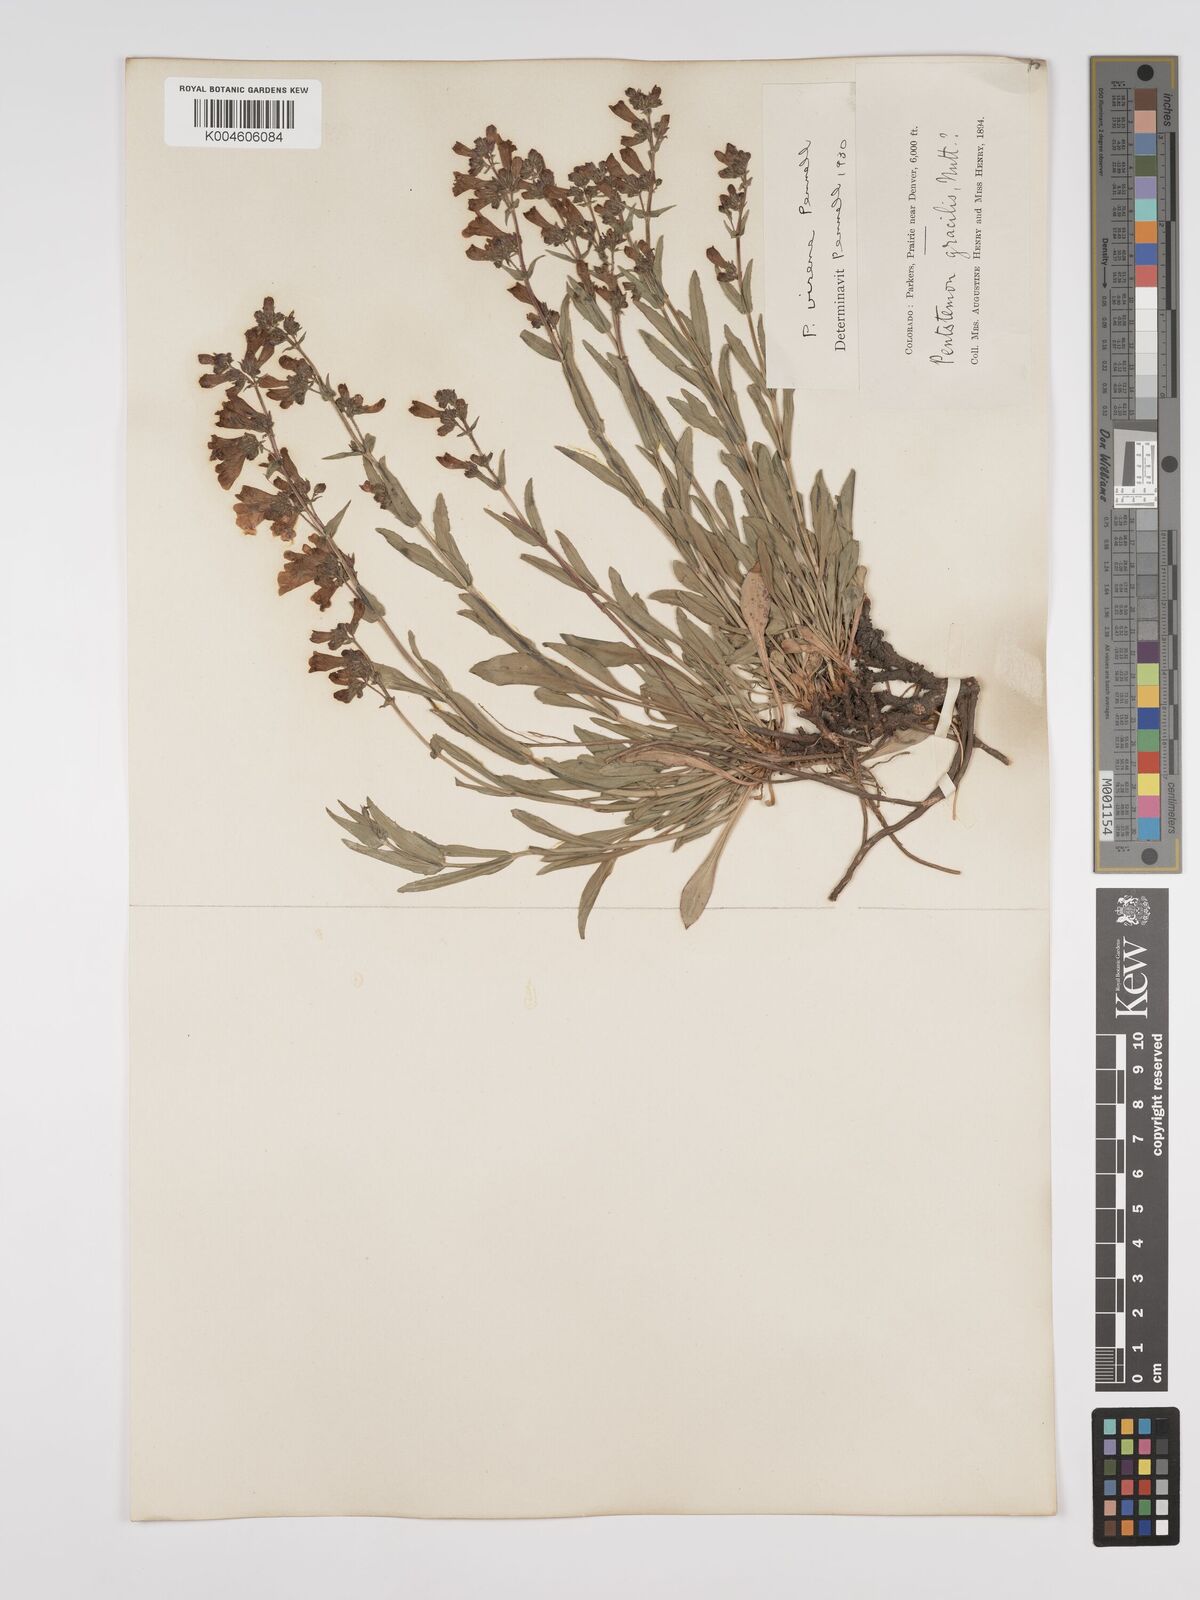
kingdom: Plantae
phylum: Tracheophyta
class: Magnoliopsida
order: Lamiales
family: Plantaginaceae
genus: Penstemon
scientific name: Penstemon virens
